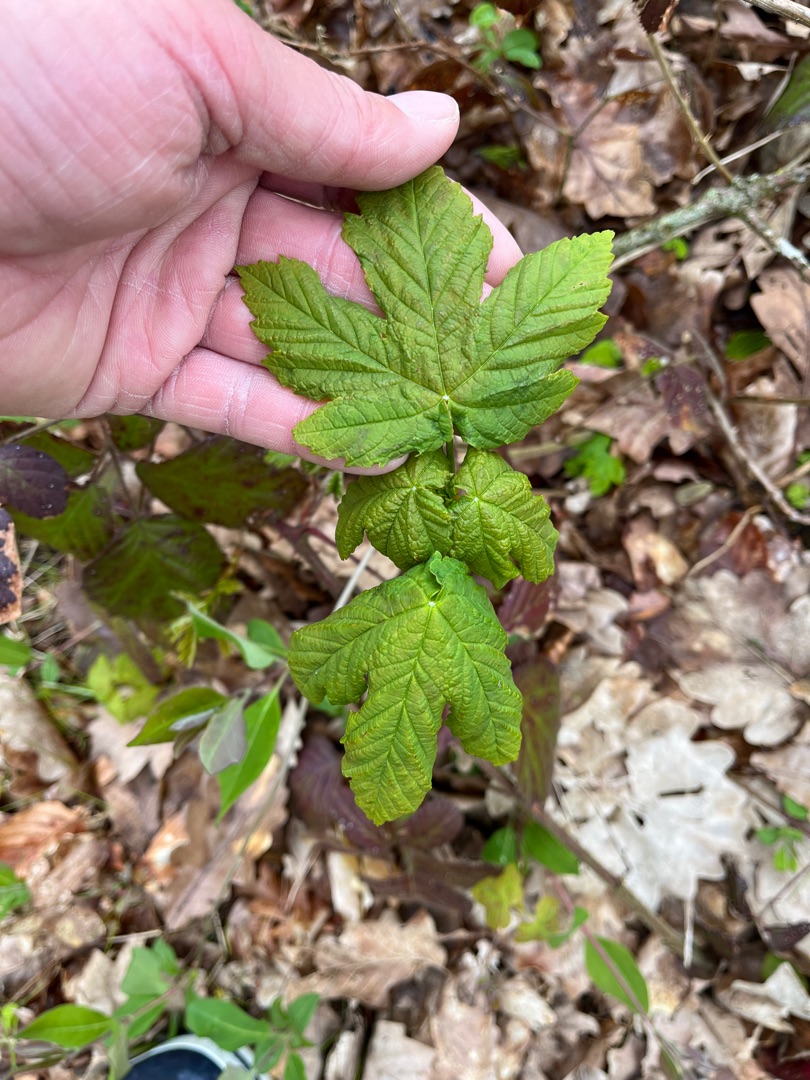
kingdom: Plantae
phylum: Tracheophyta
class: Magnoliopsida
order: Sapindales
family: Sapindaceae
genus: Acer
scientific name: Acer pseudoplatanus
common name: Ahorn
